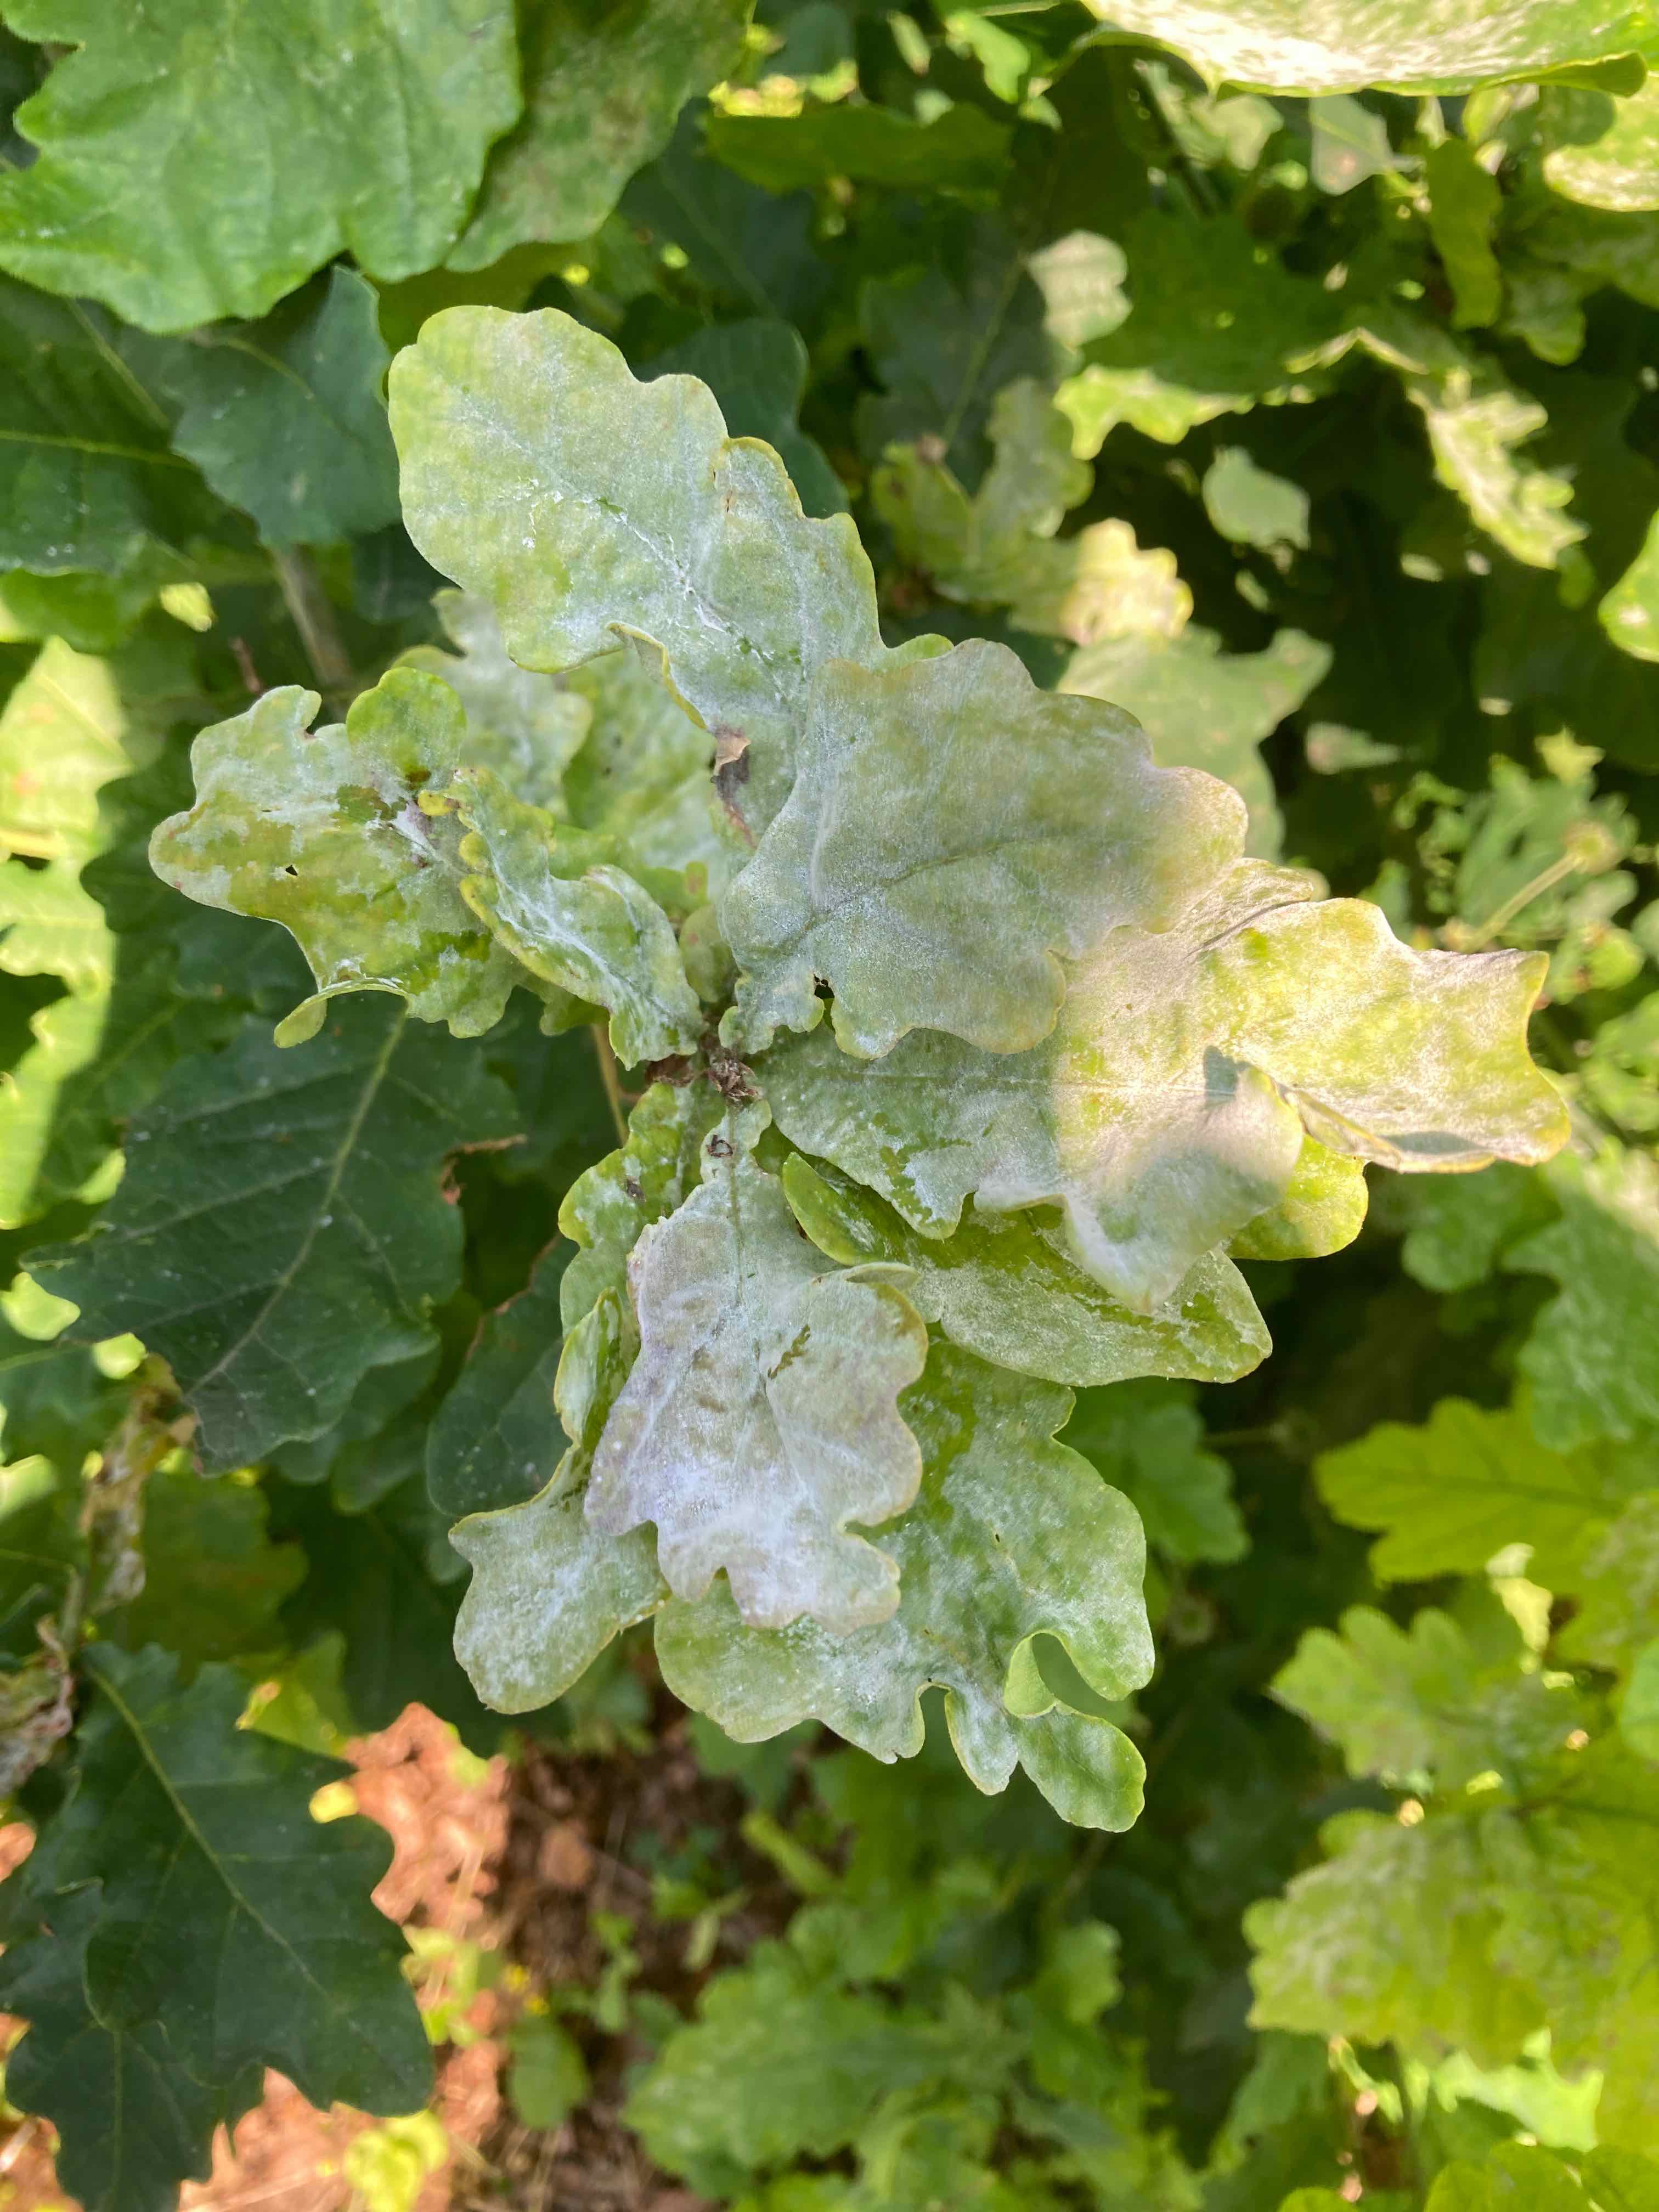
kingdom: Fungi
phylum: Ascomycota
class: Leotiomycetes
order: Helotiales
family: Erysiphaceae
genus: Erysiphe
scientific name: Erysiphe alphitoides
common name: ege-meldug
